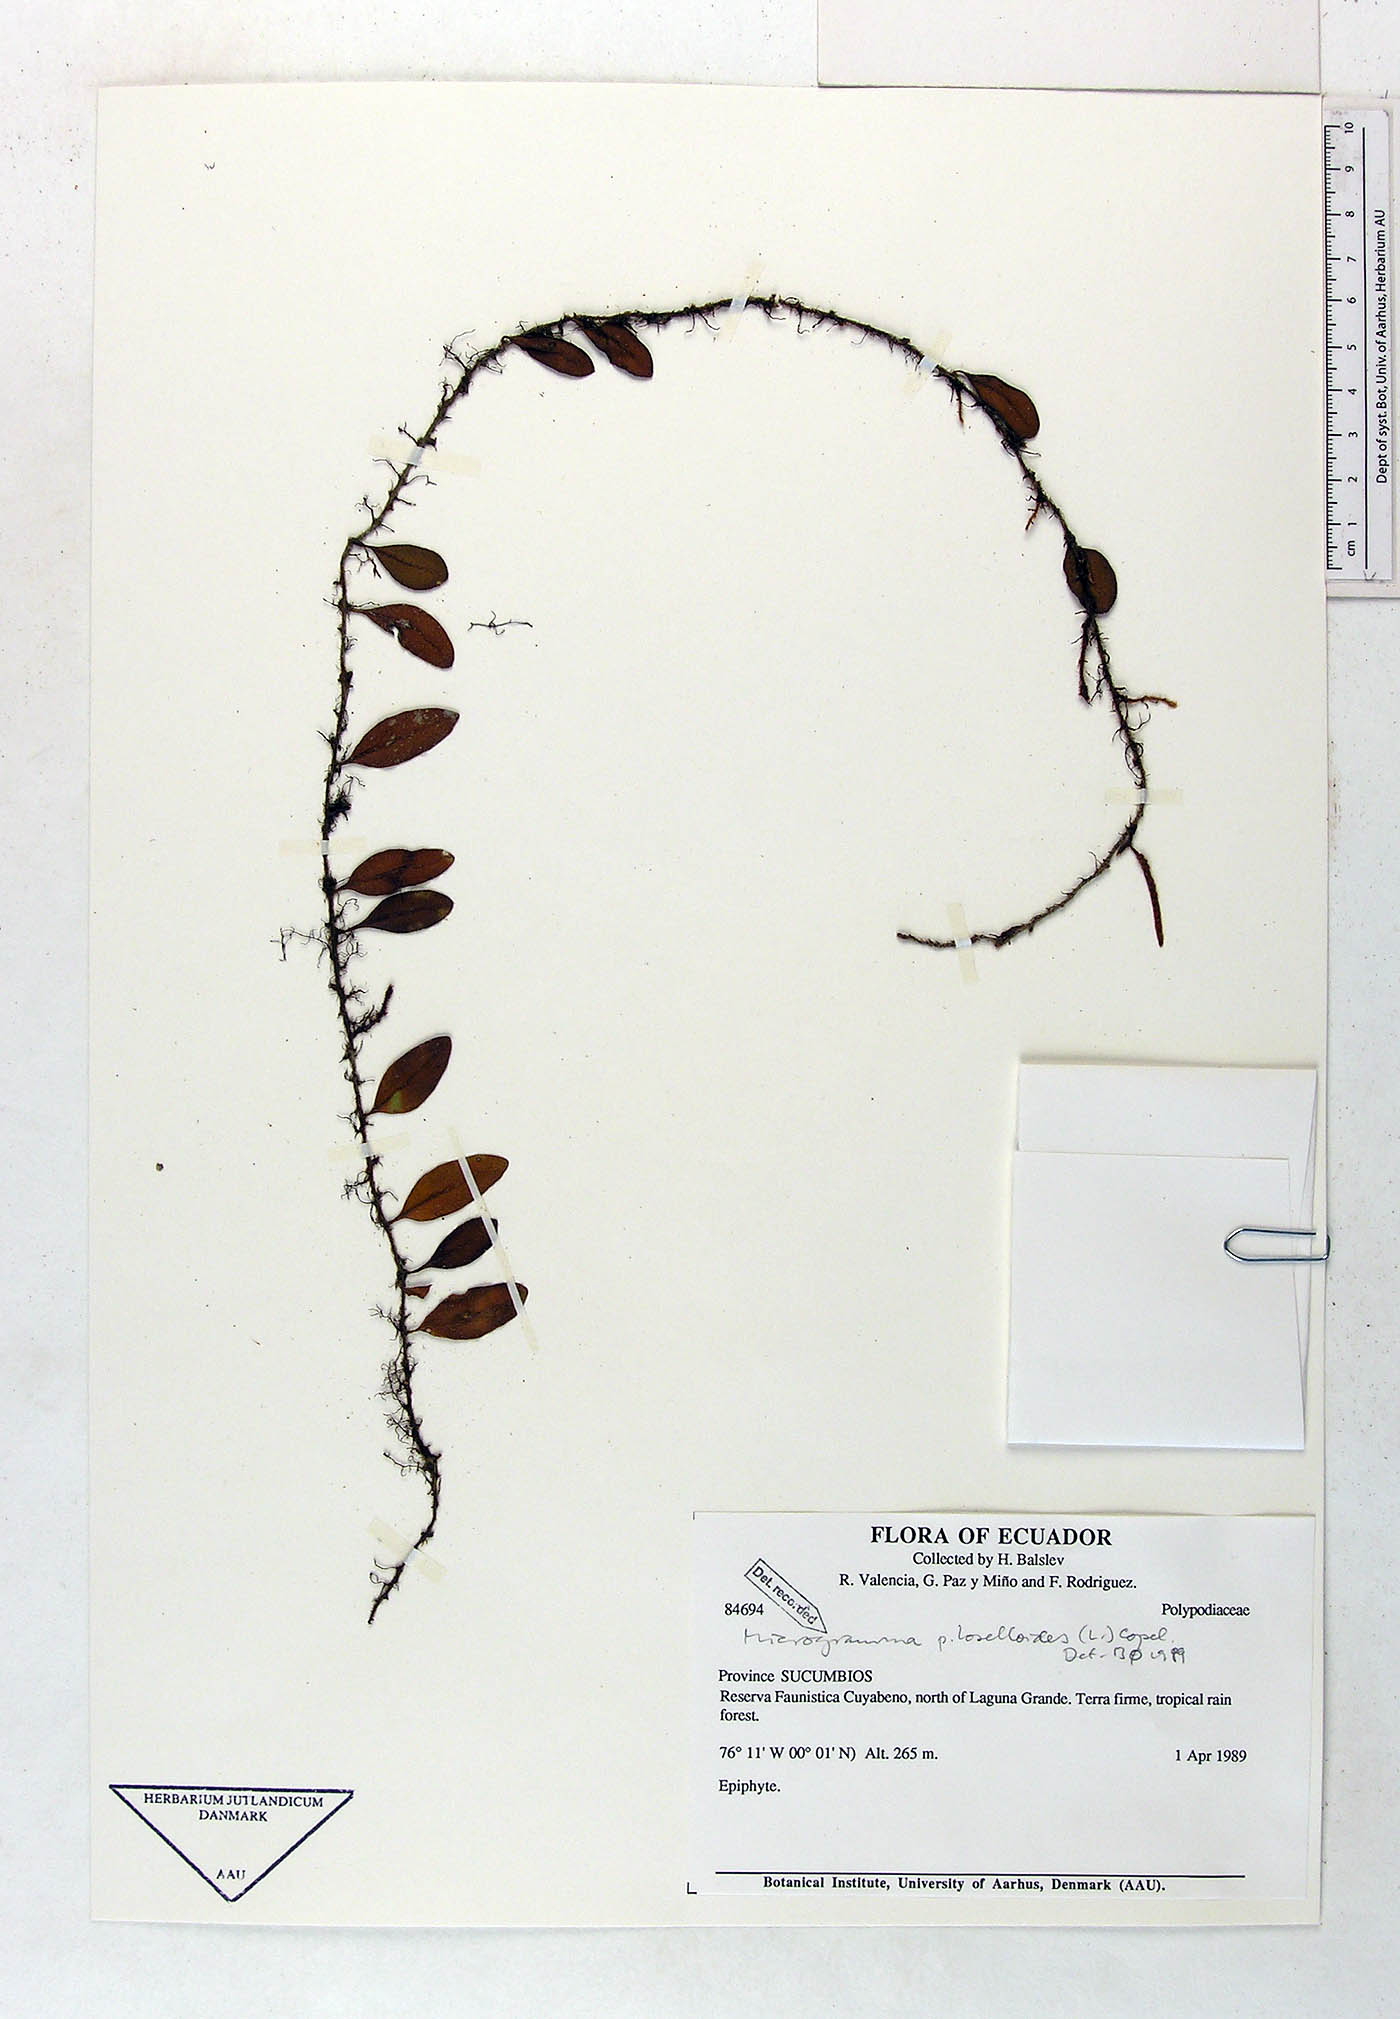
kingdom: Plantae
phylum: Tracheophyta
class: Polypodiopsida
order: Polypodiales
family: Polypodiaceae
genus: Microgramma
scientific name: Microgramma piloselloides
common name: Hairy snakefern
